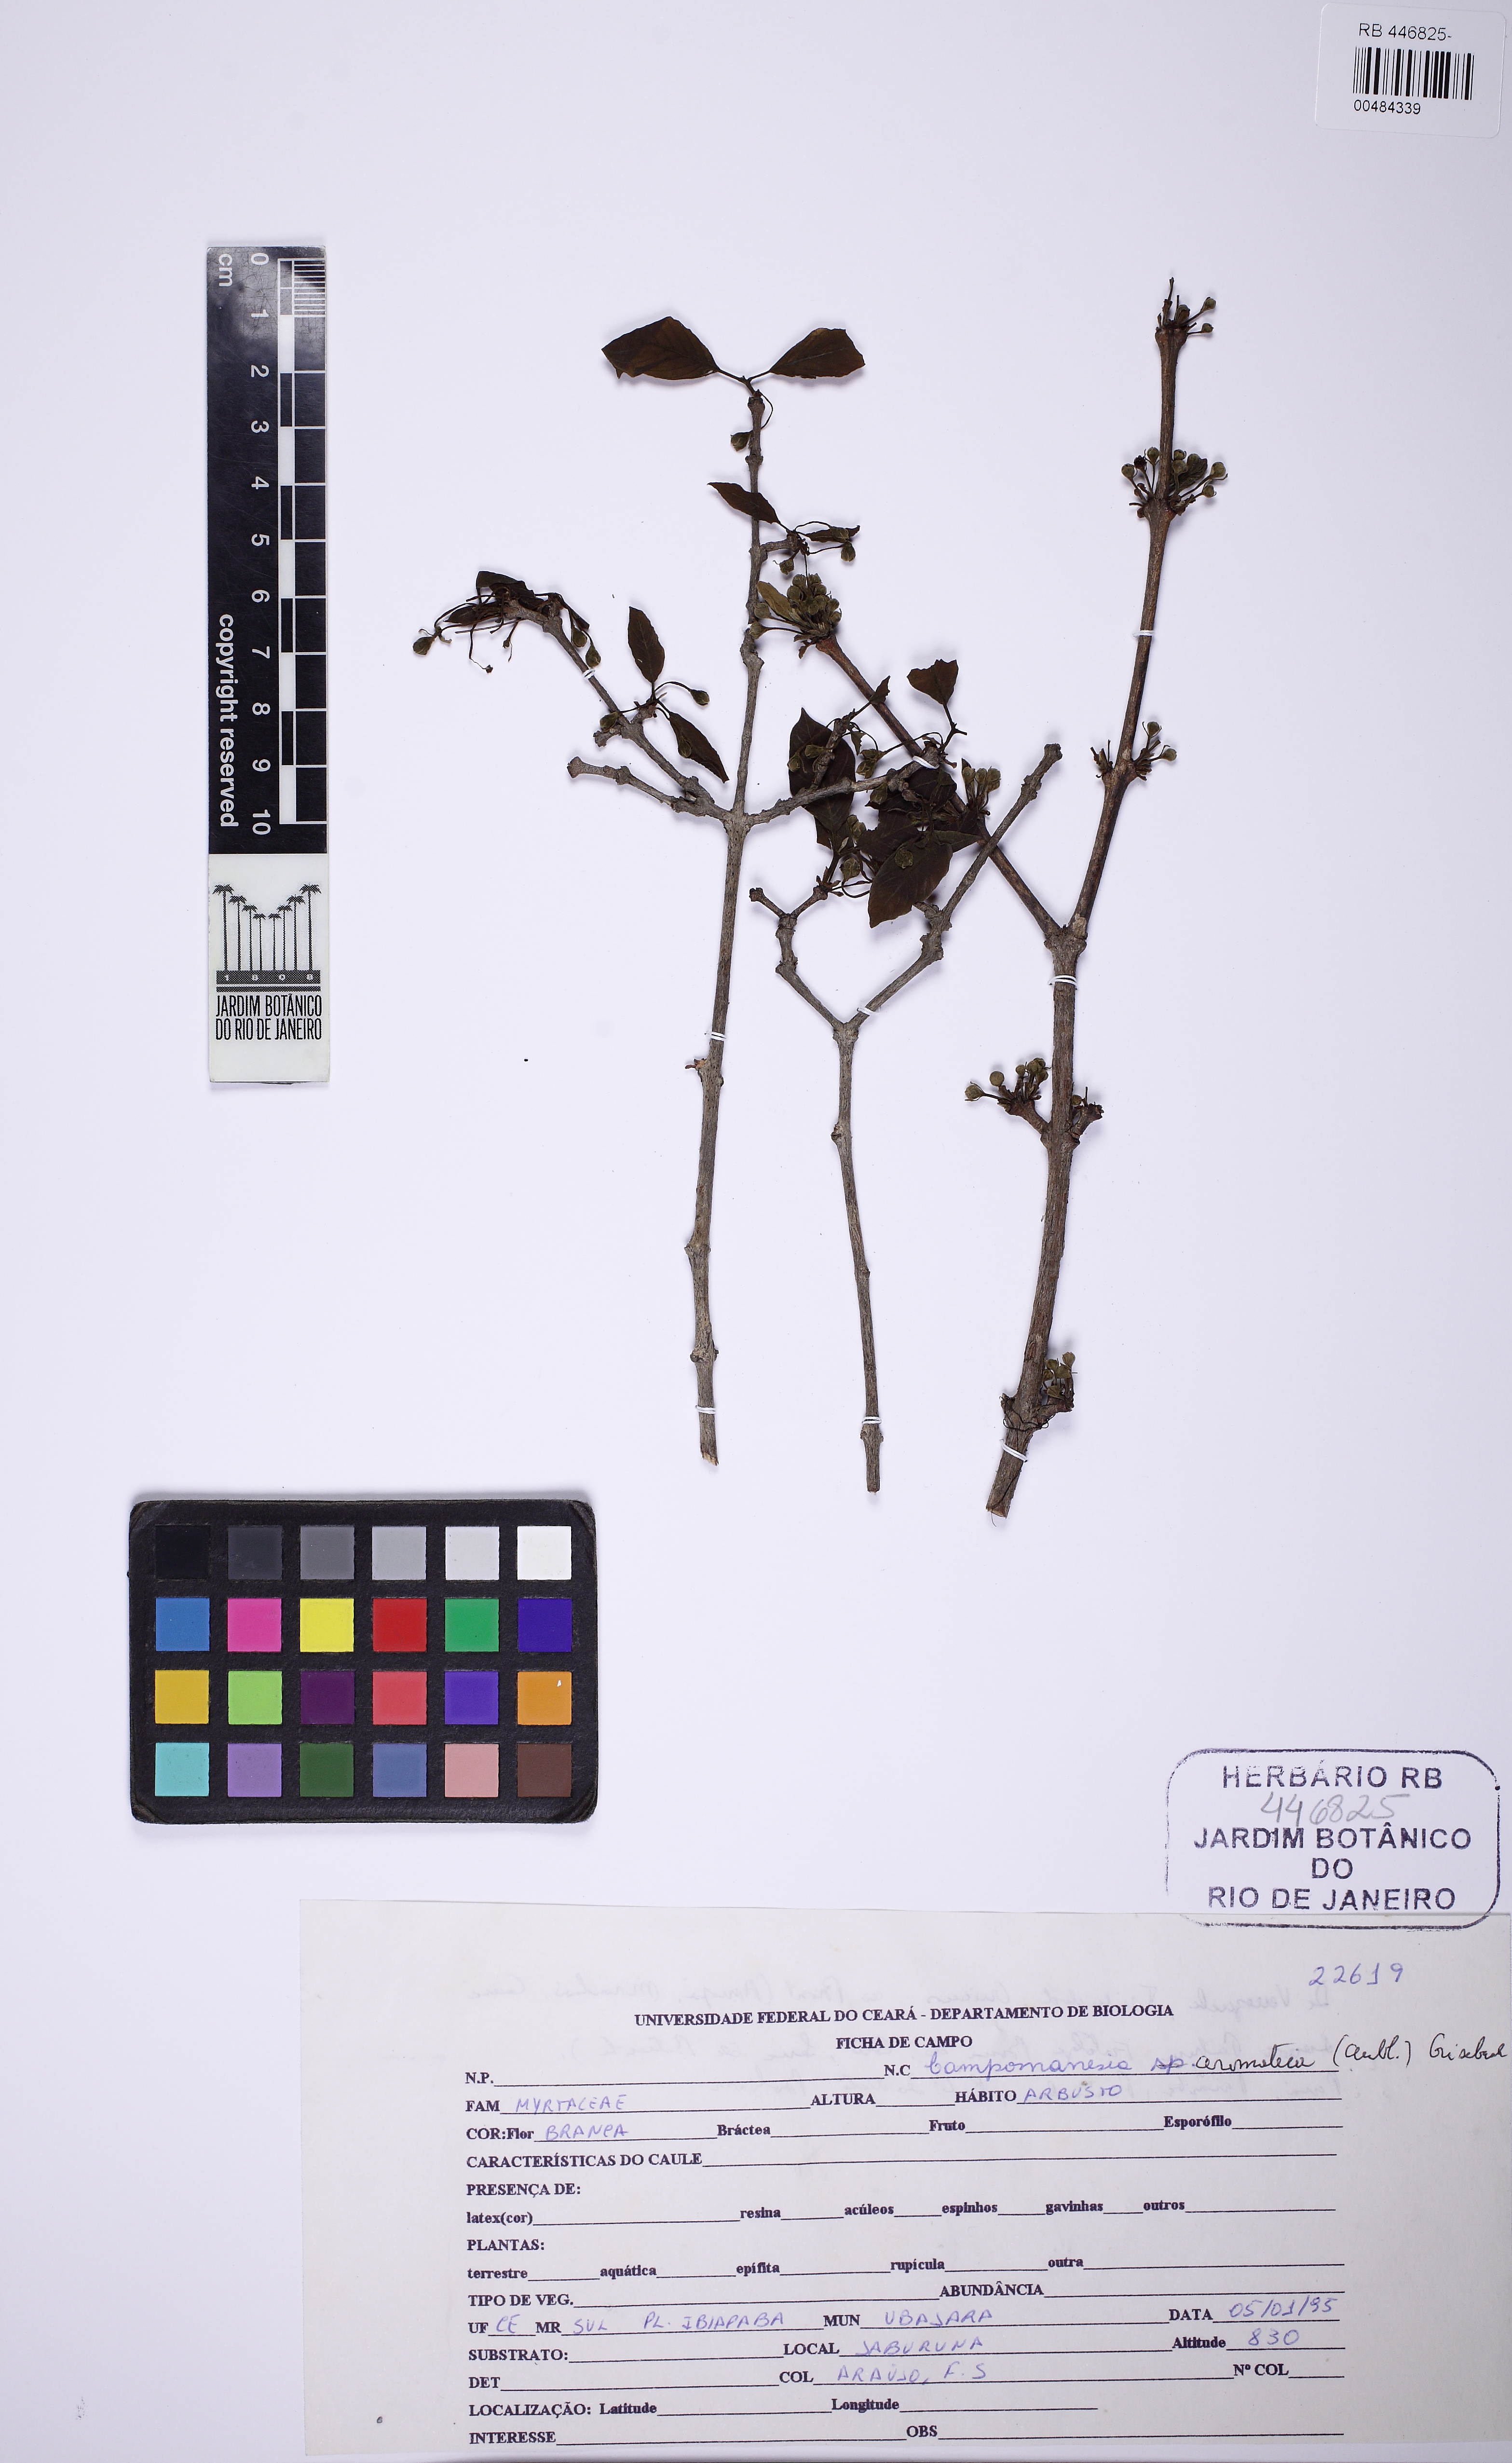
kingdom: Plantae
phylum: Tracheophyta
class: Magnoliopsida
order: Myrtales
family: Myrtaceae
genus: Campomanesia
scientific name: Campomanesia aromatica
